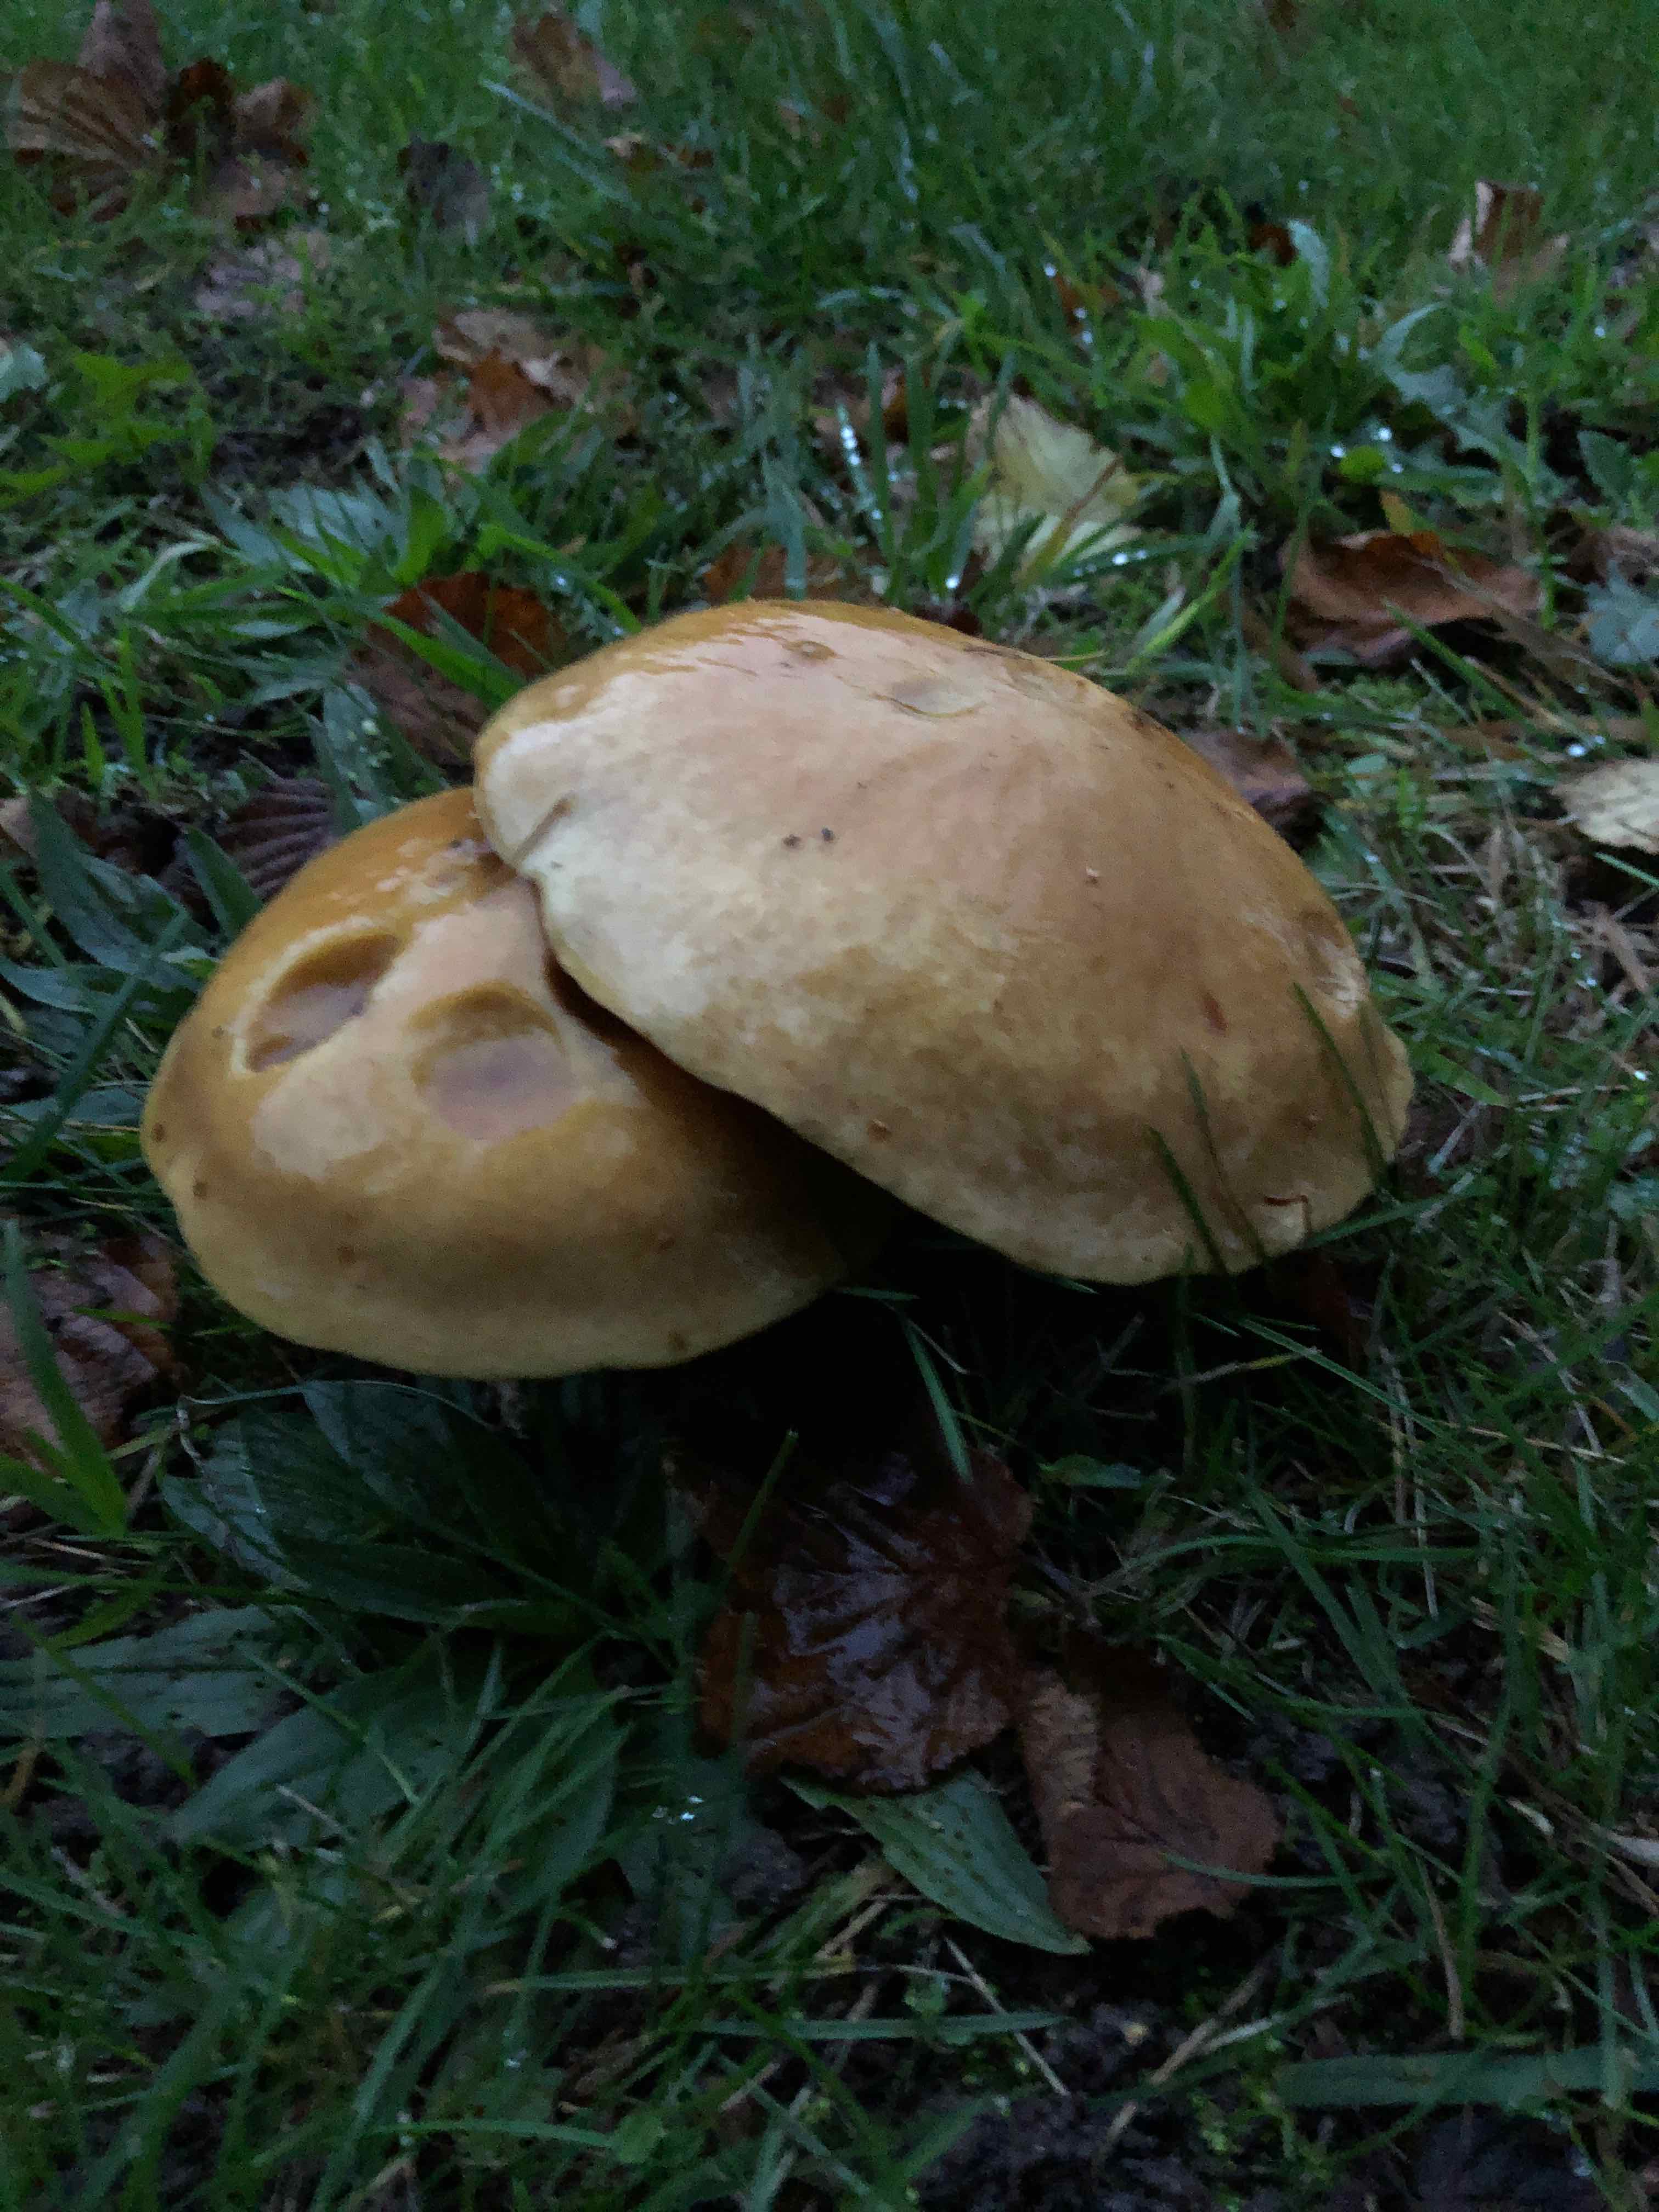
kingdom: Fungi
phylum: Basidiomycota
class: Agaricomycetes
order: Boletales
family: Suillaceae
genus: Suillus
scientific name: Suillus grevillei
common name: lærke-slimrørhat
